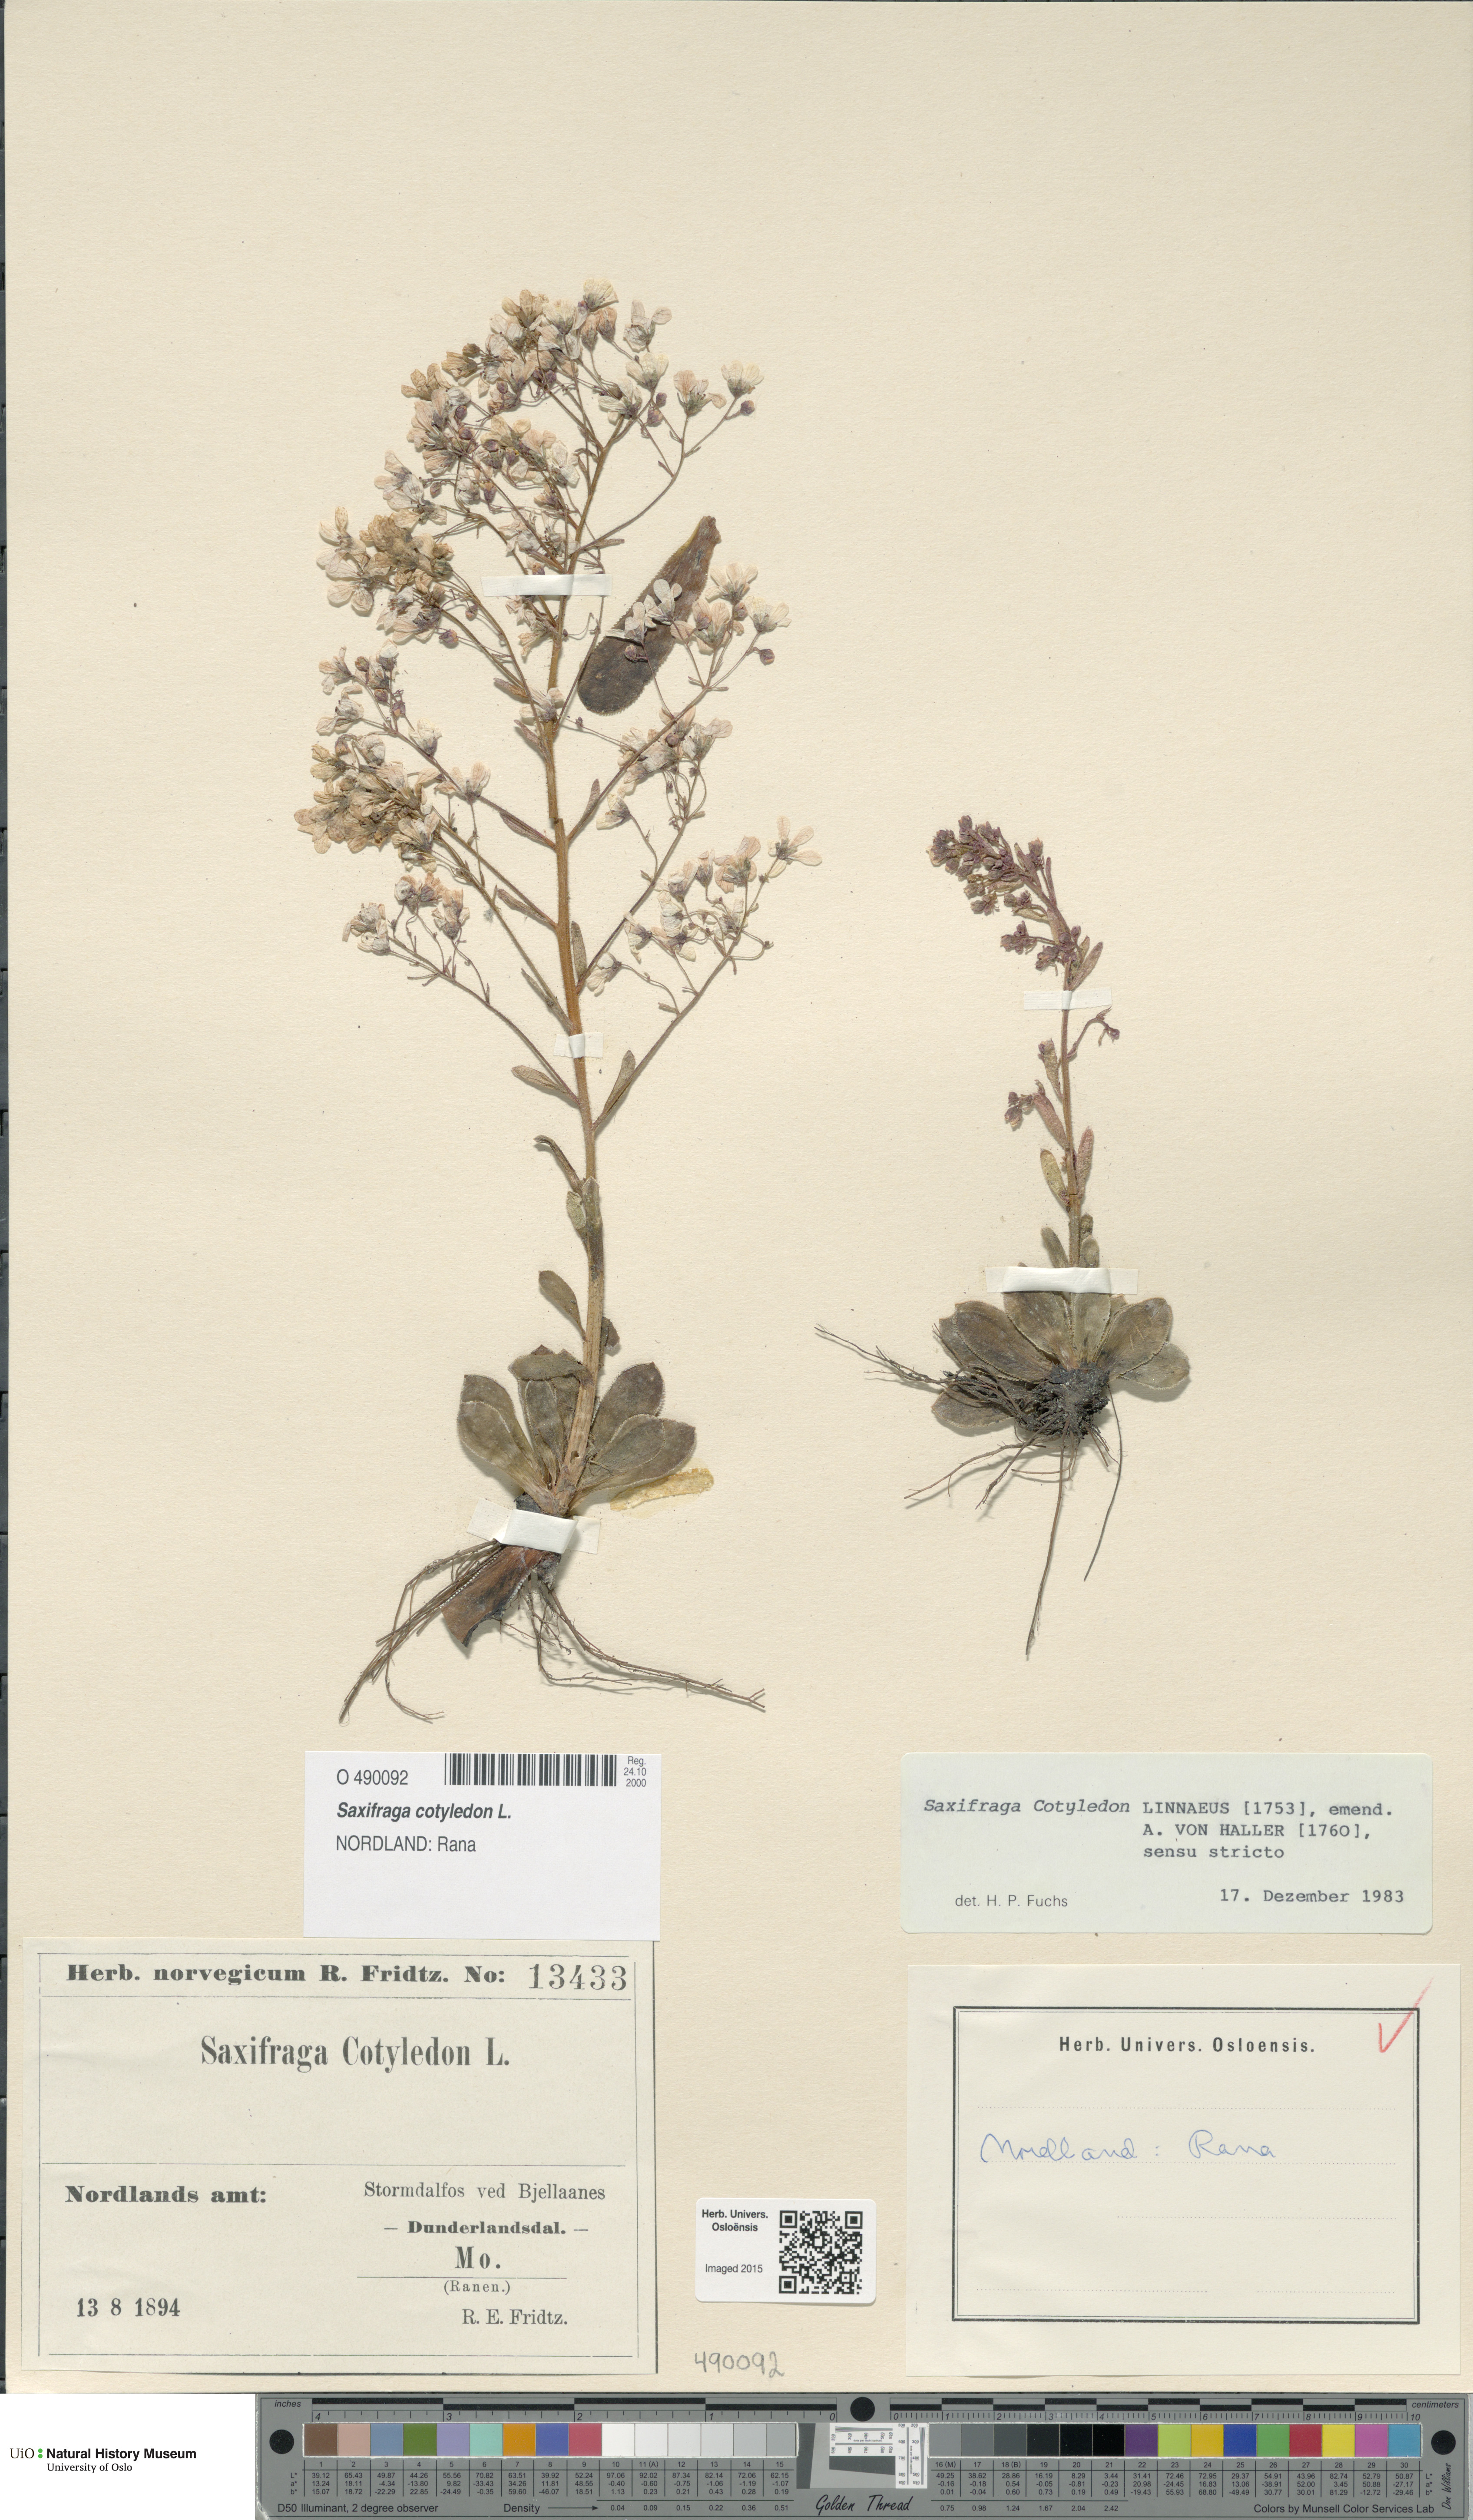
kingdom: Plantae
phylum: Tracheophyta
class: Magnoliopsida
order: Saxifragales
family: Saxifragaceae
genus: Saxifraga
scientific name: Saxifraga cotyledon
